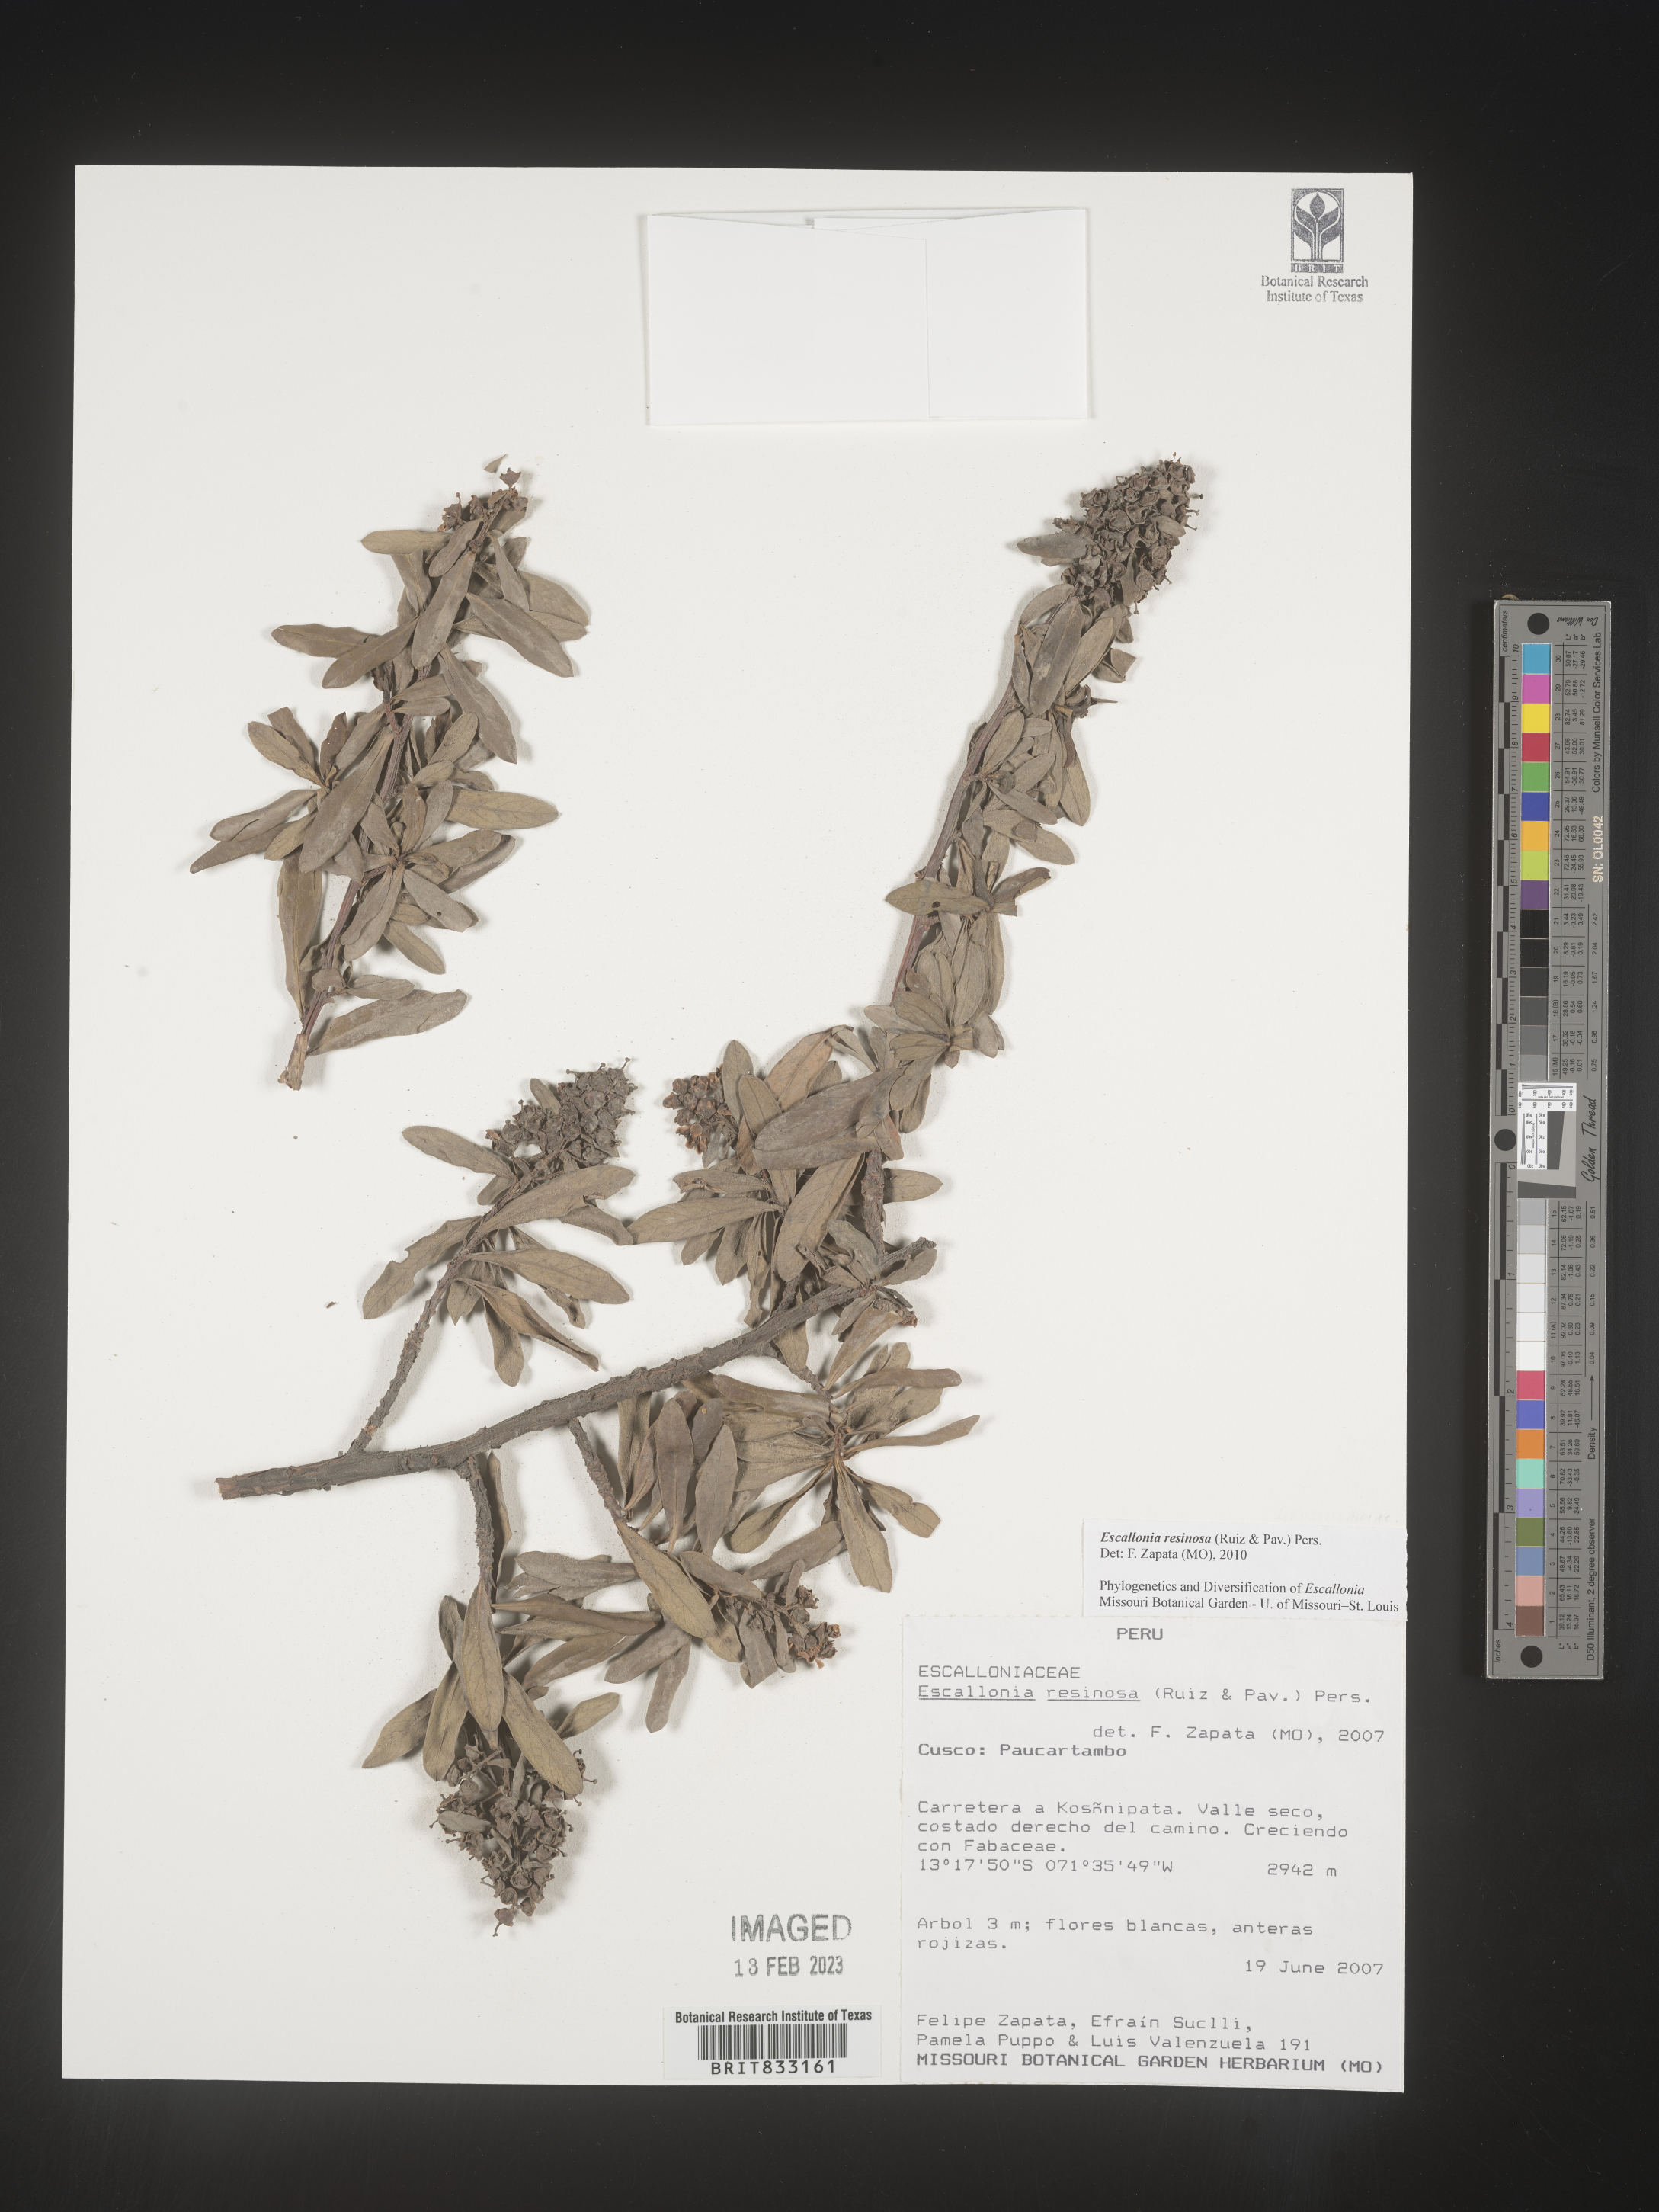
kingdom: Plantae
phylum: Tracheophyta
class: Magnoliopsida
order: Escalloniales
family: Escalloniaceae
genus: Escallonia
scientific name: Escallonia resinosa
